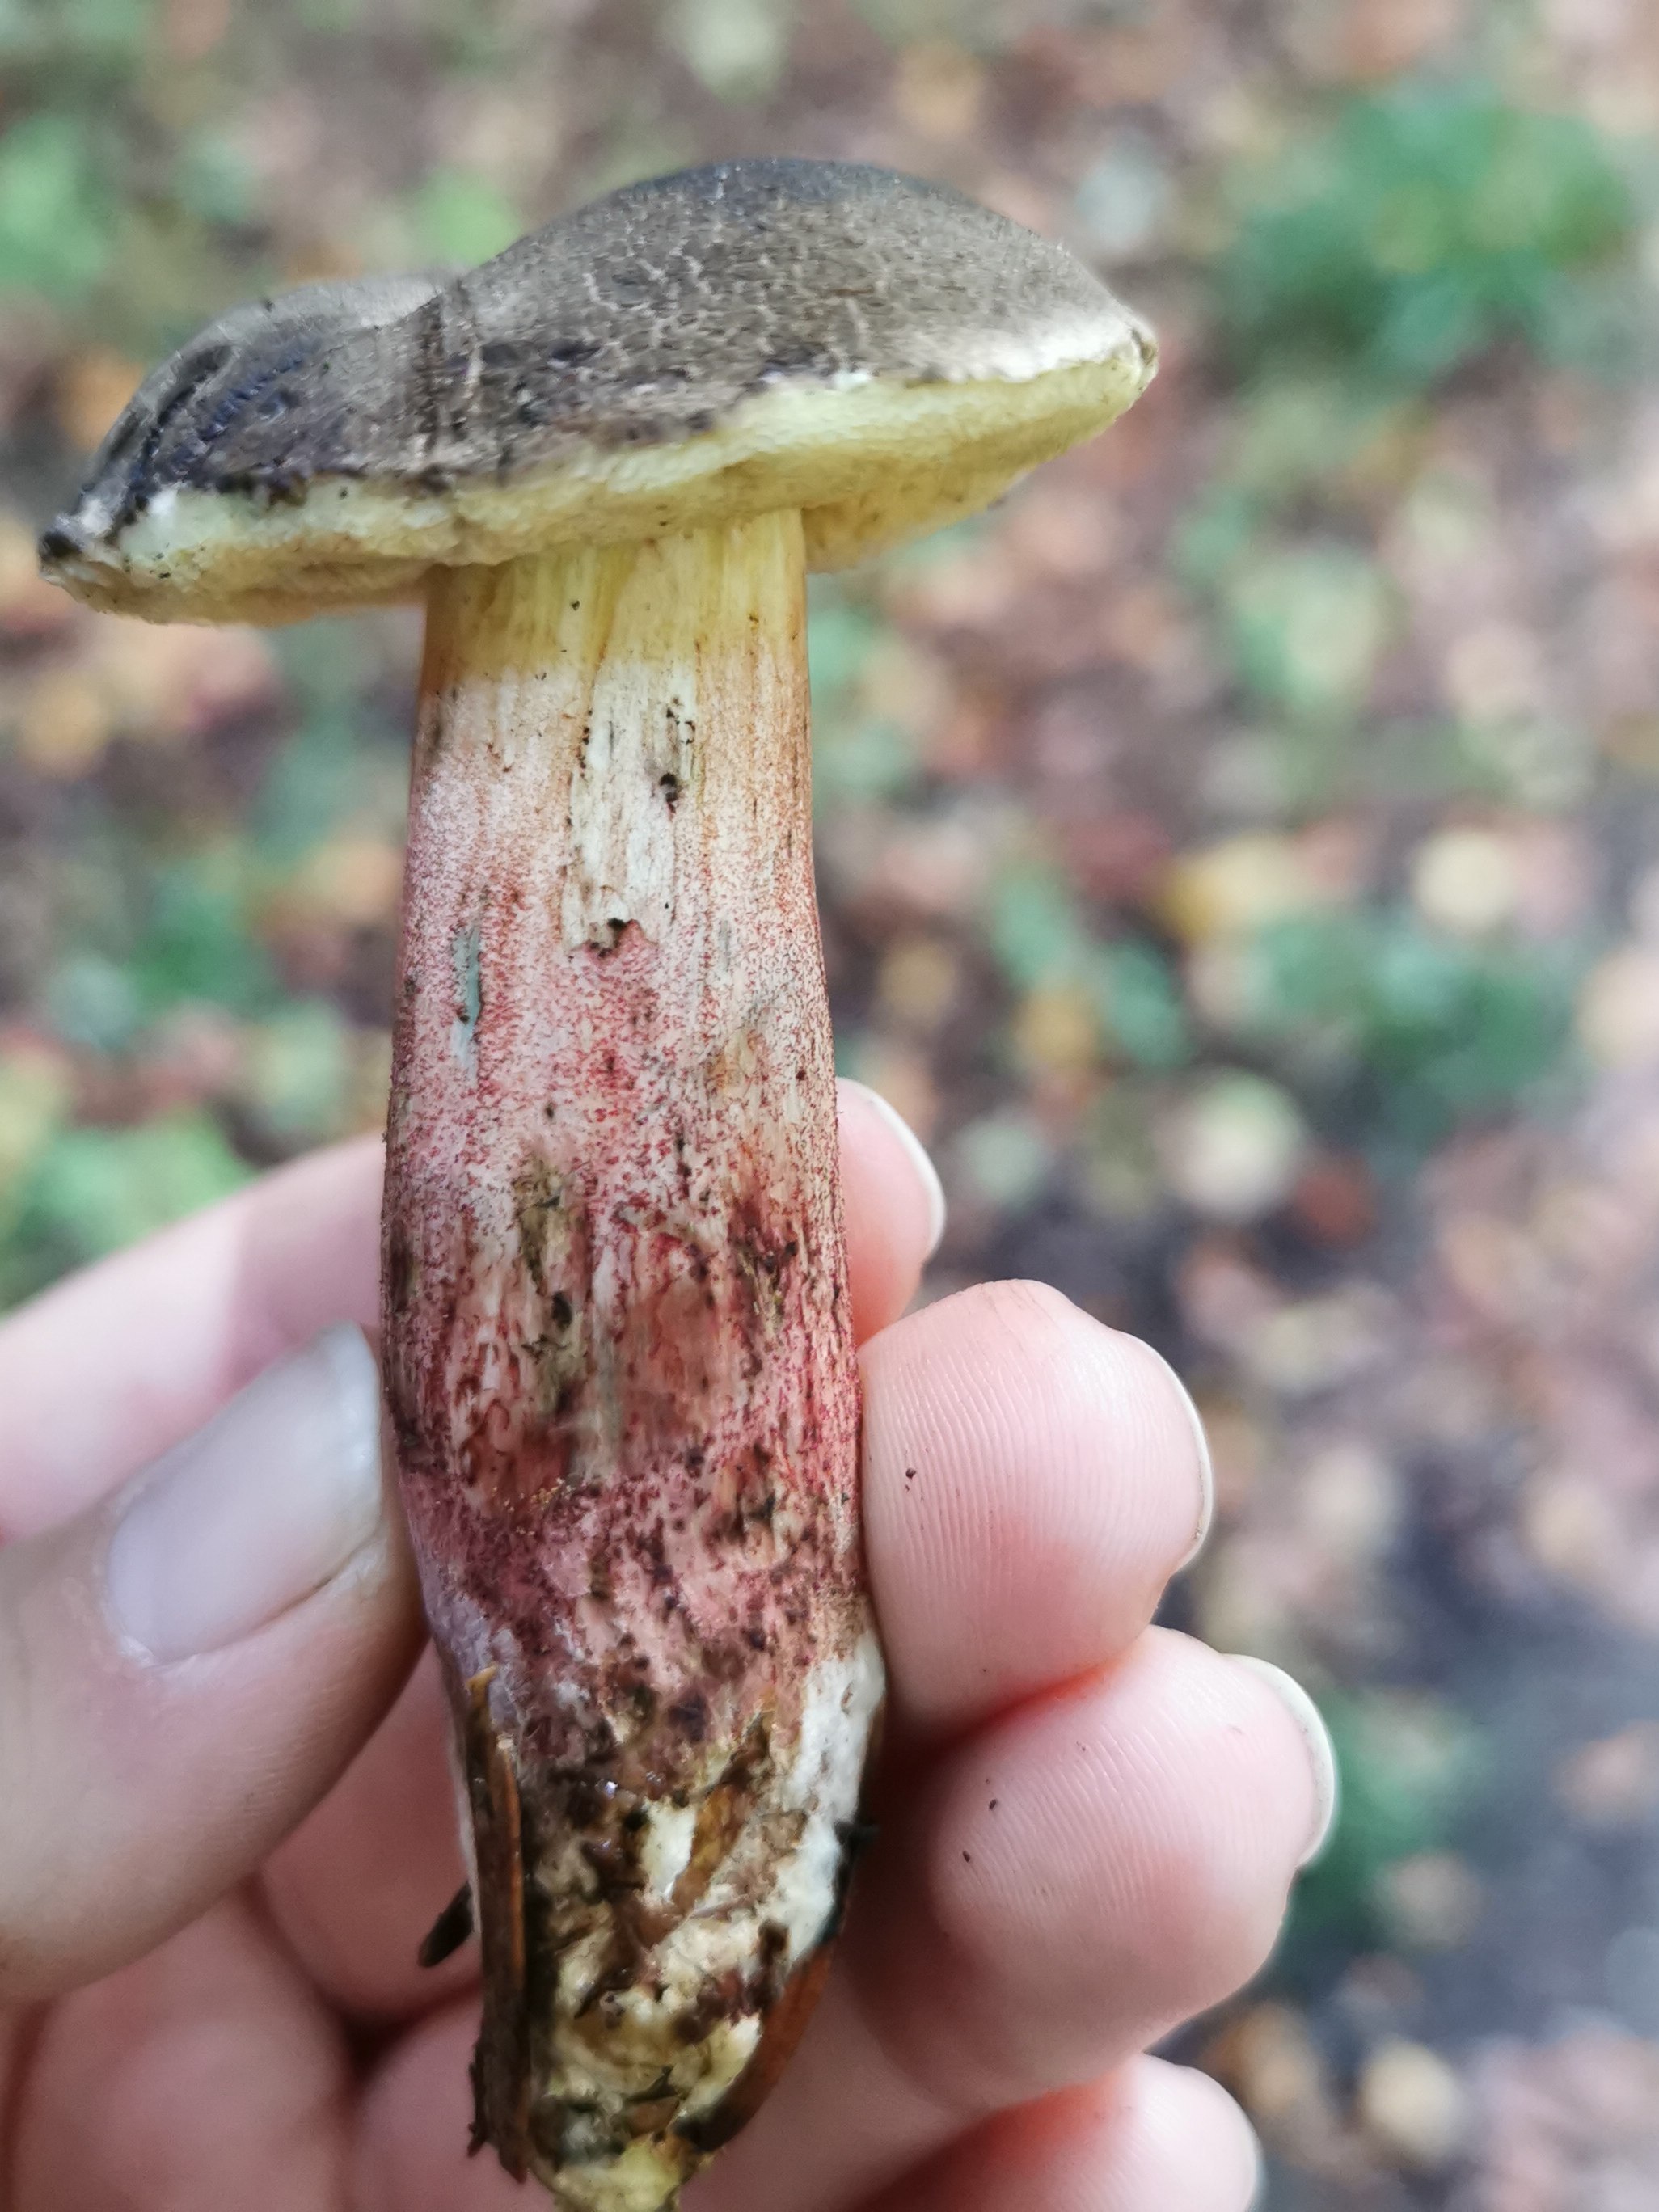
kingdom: Fungi
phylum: Basidiomycota
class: Agaricomycetes
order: Boletales
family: Boletaceae
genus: Xerocomellus
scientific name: Xerocomellus
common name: dværgrørhat
